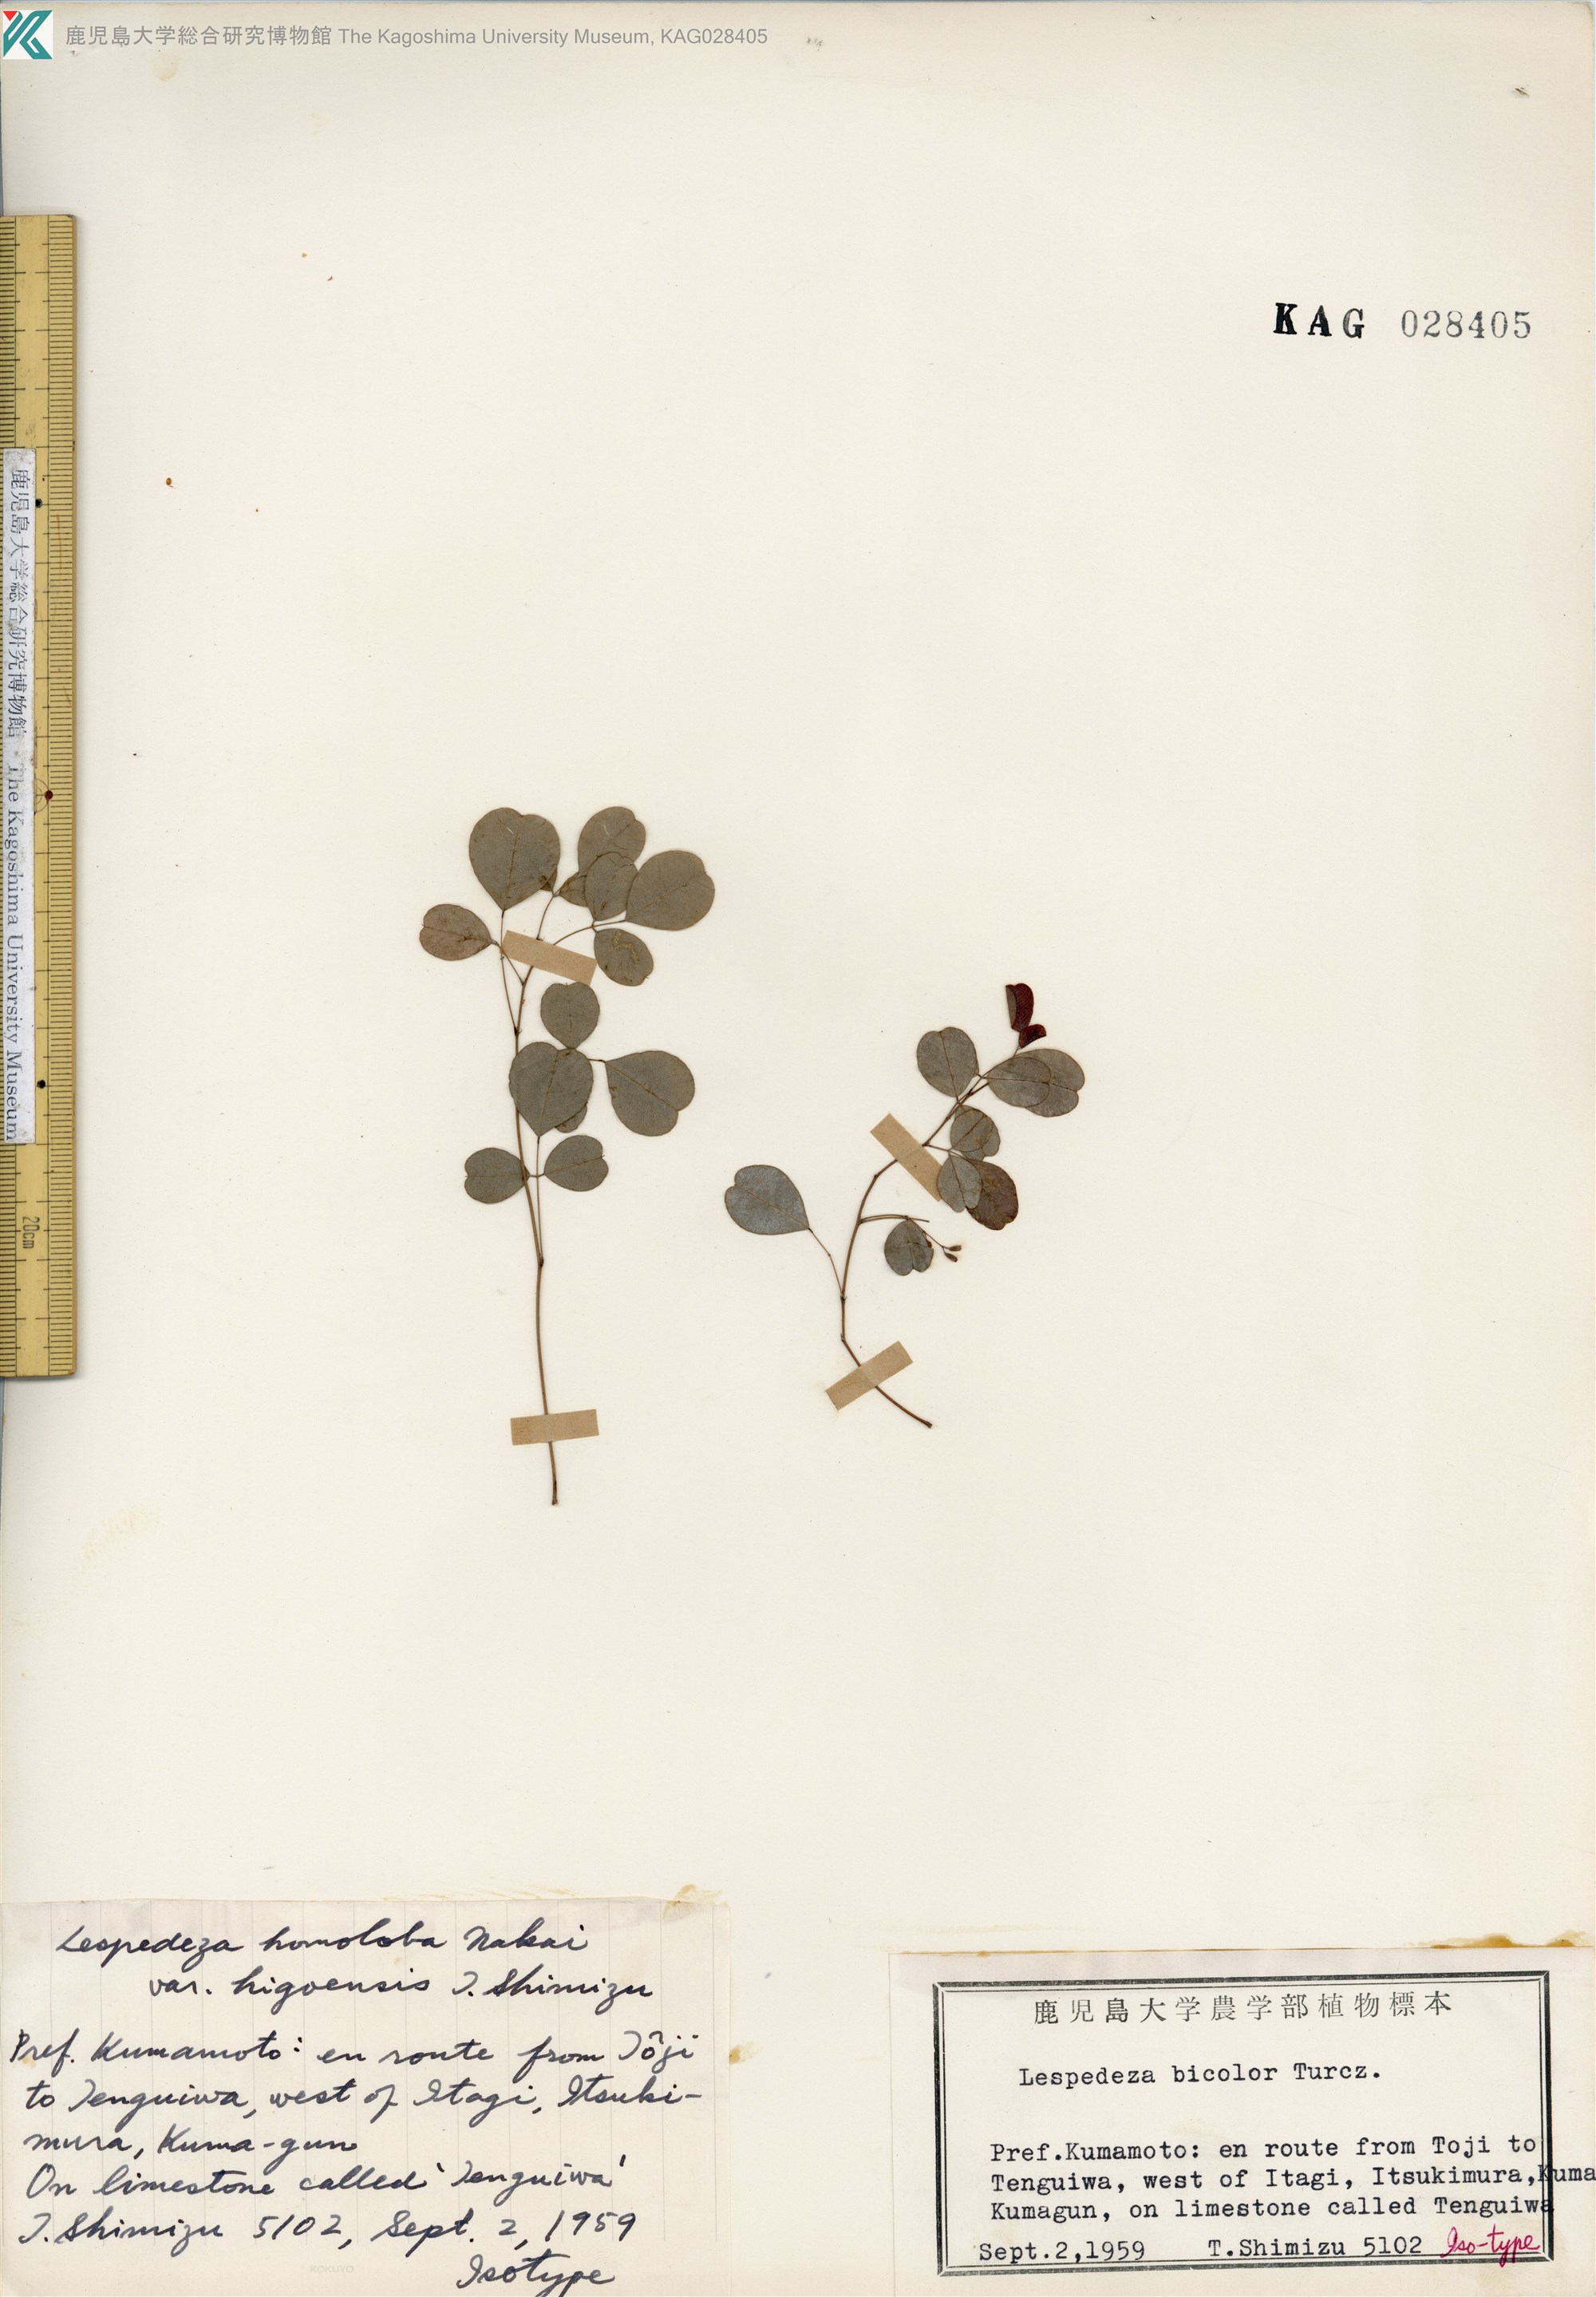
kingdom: Plantae
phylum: Tracheophyta
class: Magnoliopsida
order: Fabales
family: Fabaceae
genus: Lespedeza
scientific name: Lespedeza melanantha
